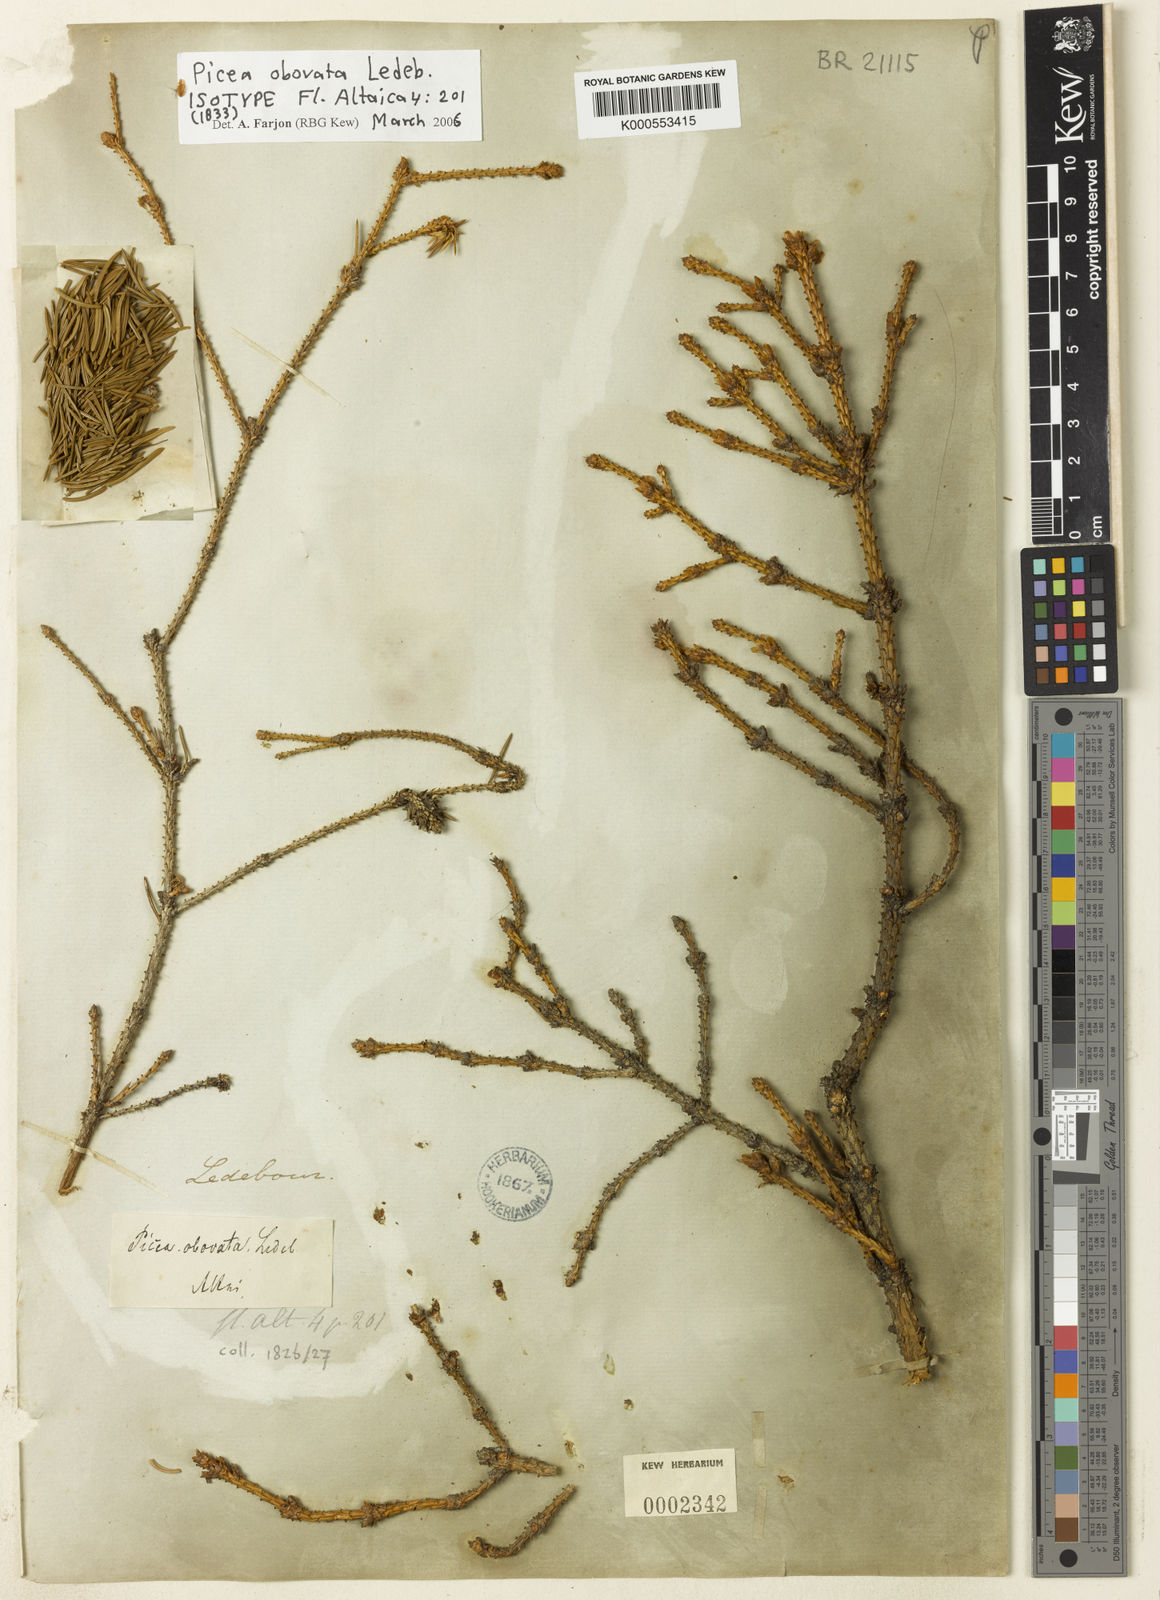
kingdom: Plantae
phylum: Tracheophyta
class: Pinopsida
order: Pinales
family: Pinaceae
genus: Picea
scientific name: Picea obovata
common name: Siberian spruce
